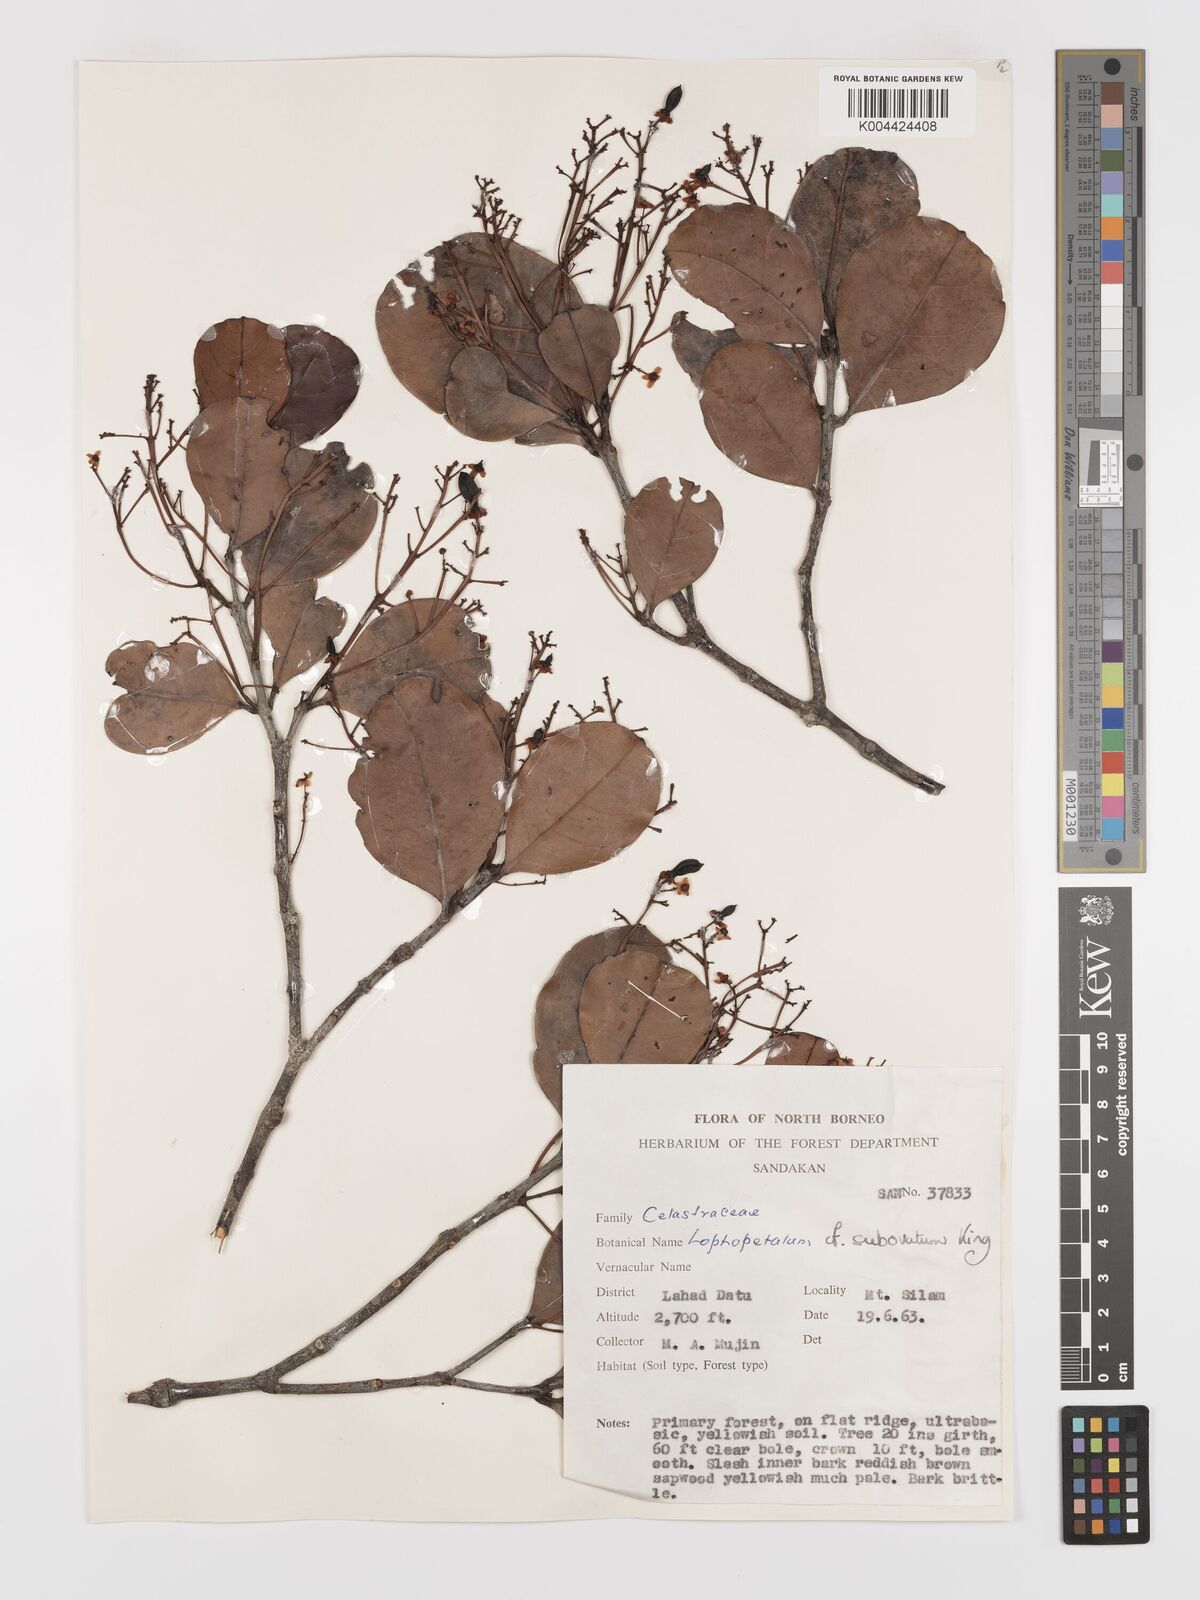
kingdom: Plantae
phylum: Tracheophyta
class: Magnoliopsida
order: Celastrales
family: Celastraceae
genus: Lophopetalum
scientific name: Lophopetalum
